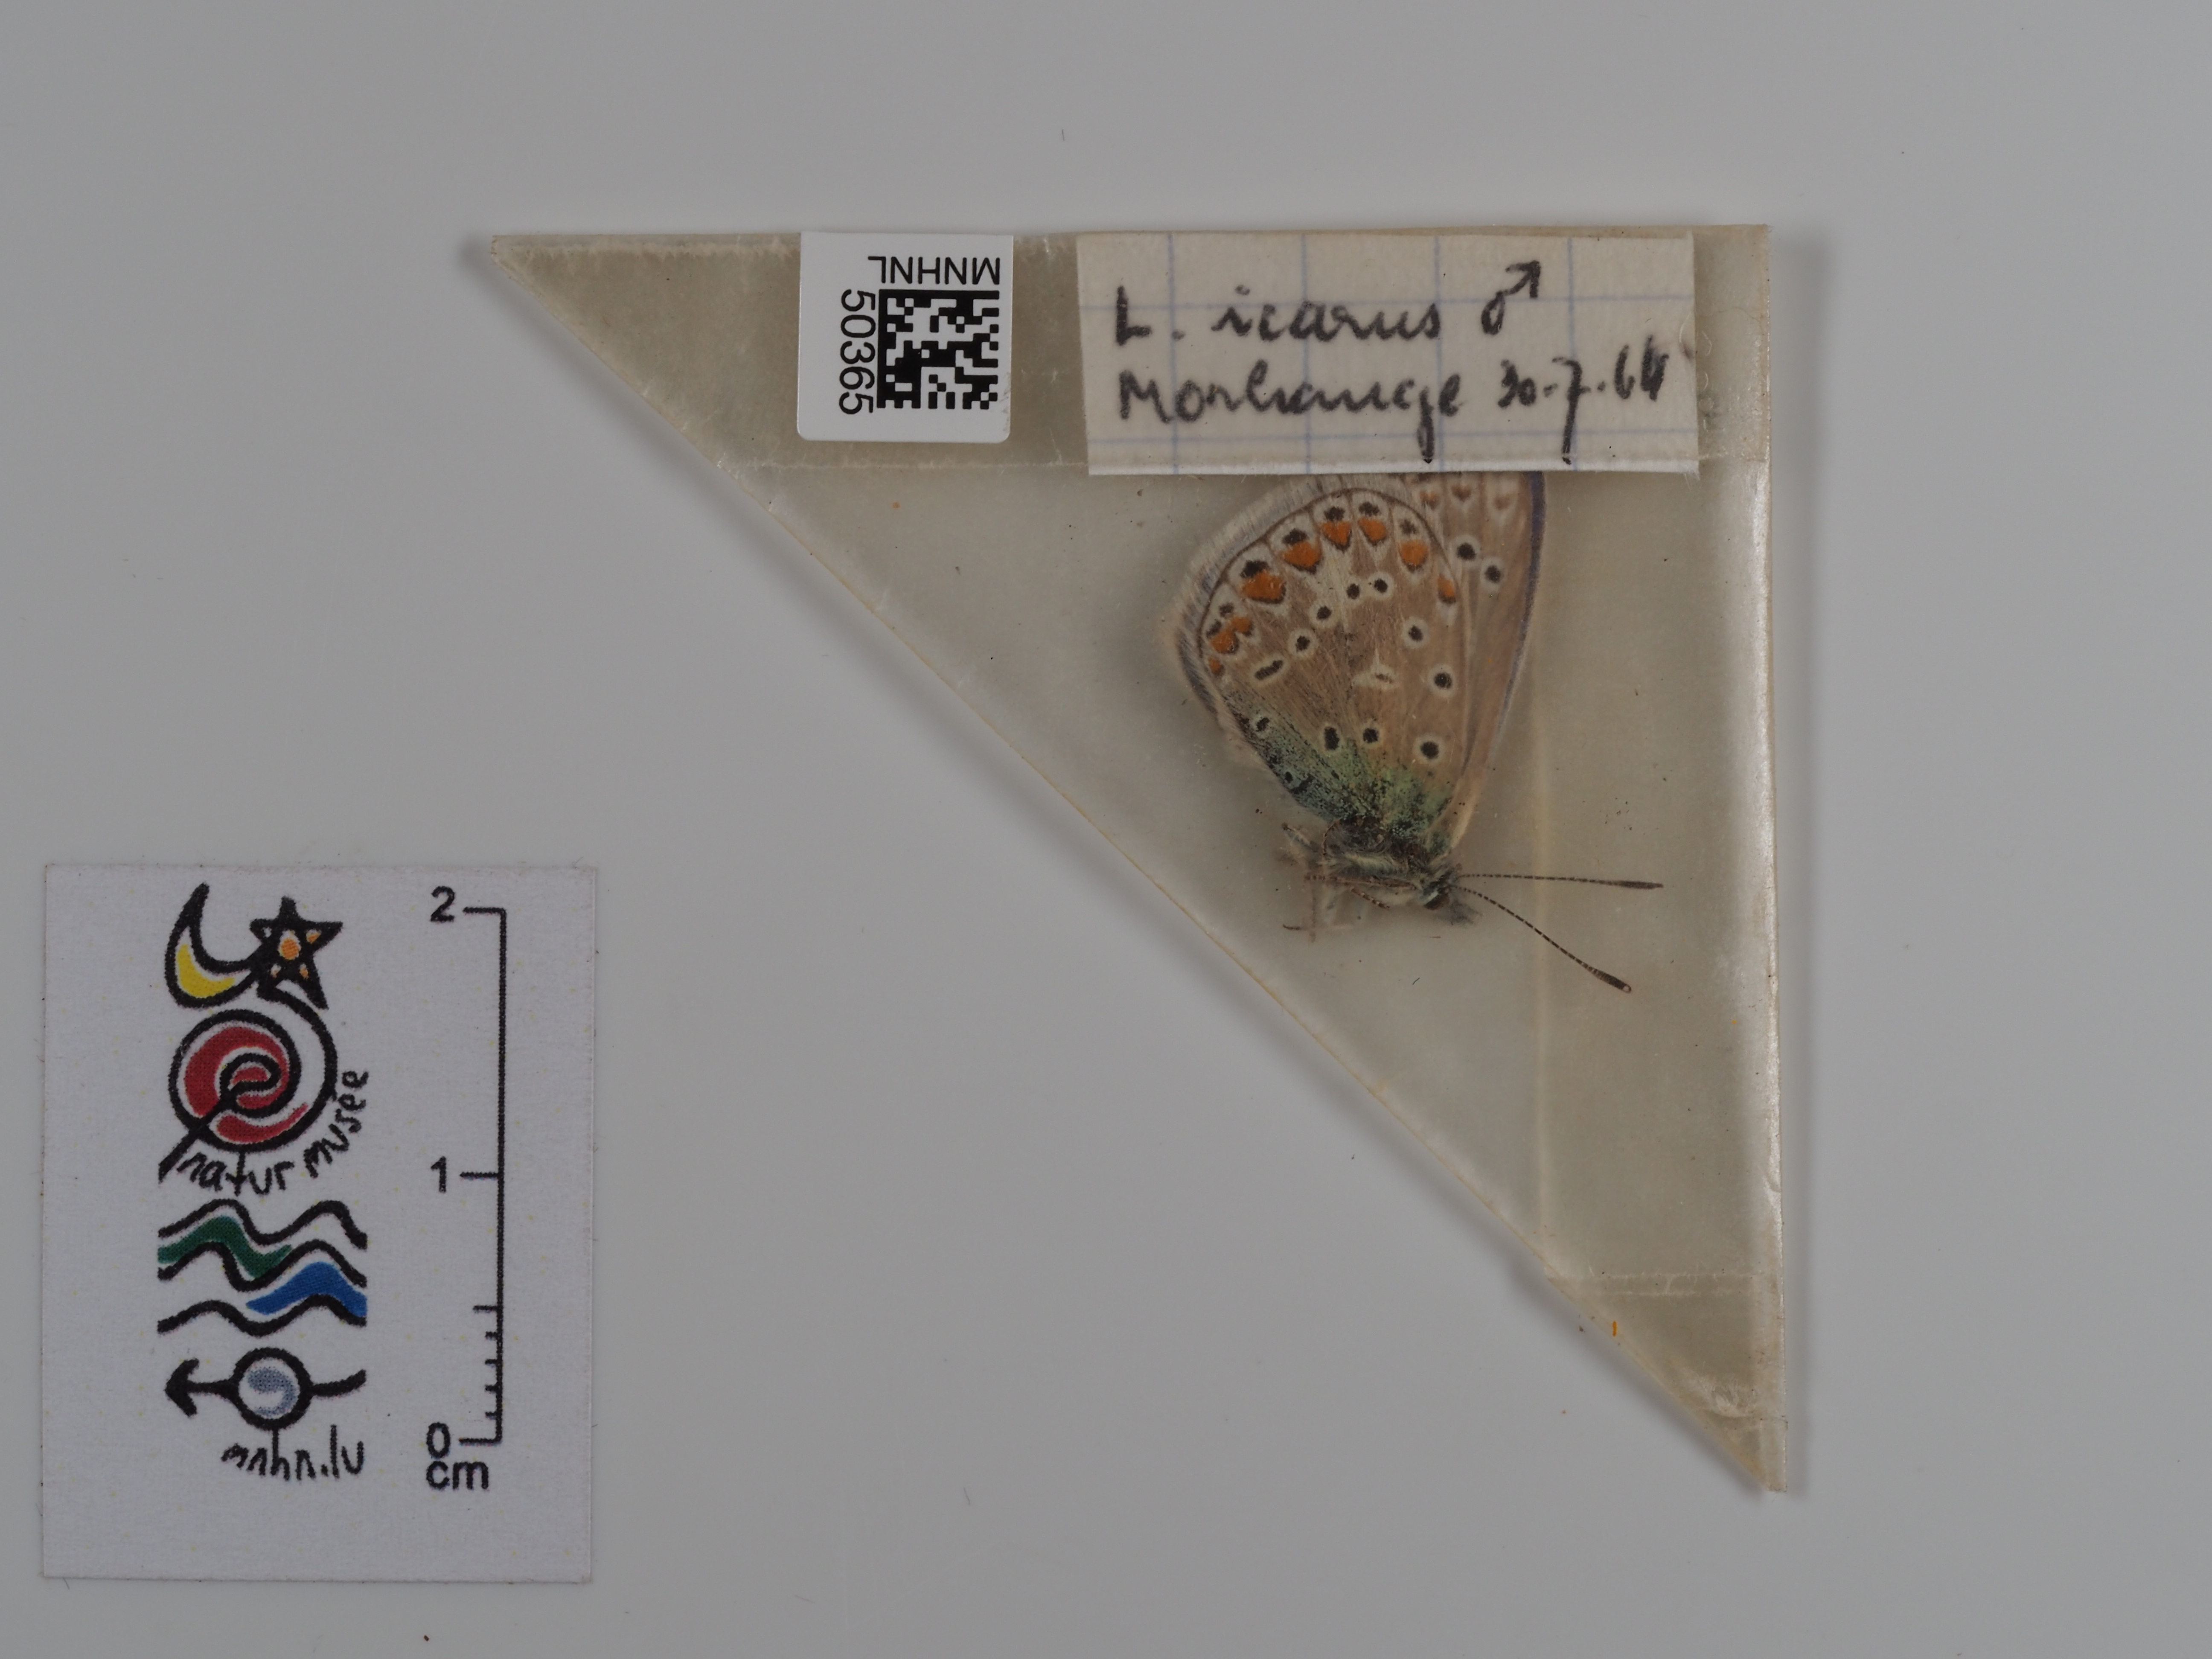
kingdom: Animalia
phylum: Arthropoda
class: Insecta
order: Lepidoptera
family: Lycaenidae
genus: Polyommatus
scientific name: Polyommatus icarus
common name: Common blue
